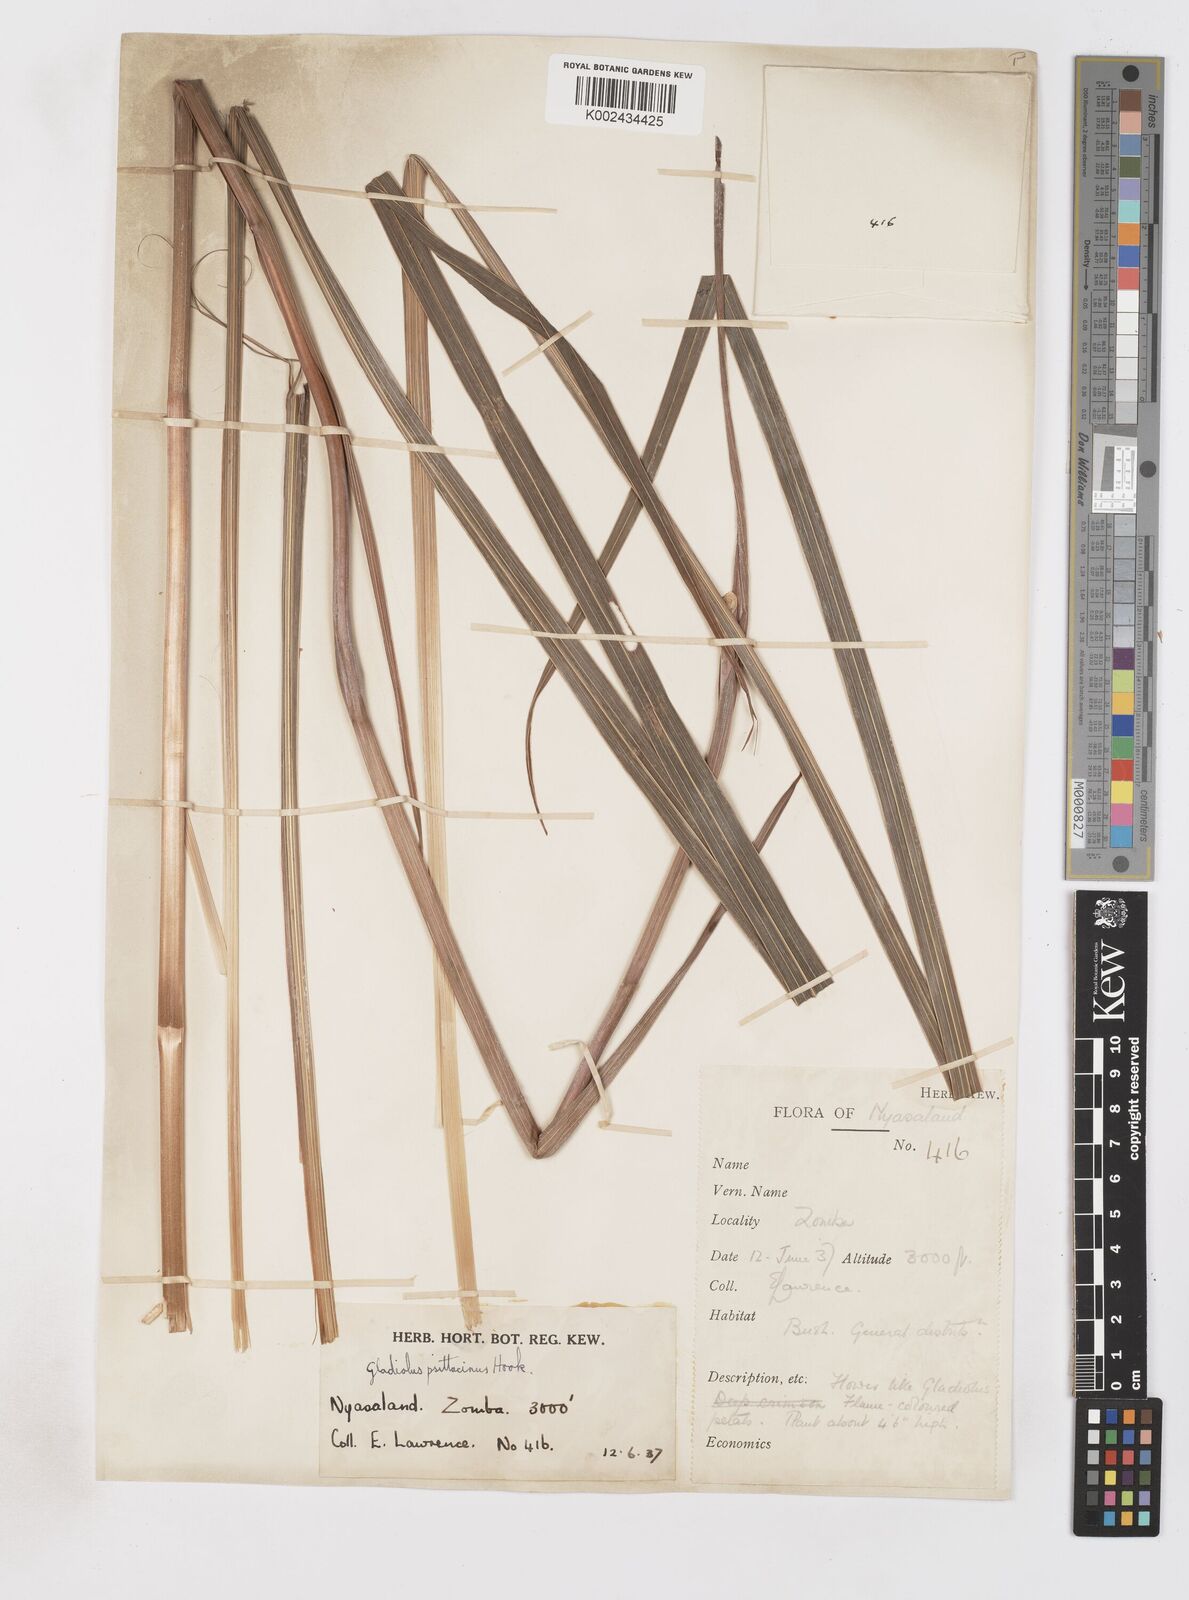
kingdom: Plantae
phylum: Tracheophyta
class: Liliopsida
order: Asparagales
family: Iridaceae
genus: Gladiolus
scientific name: Gladiolus dalenii
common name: Cornflag
